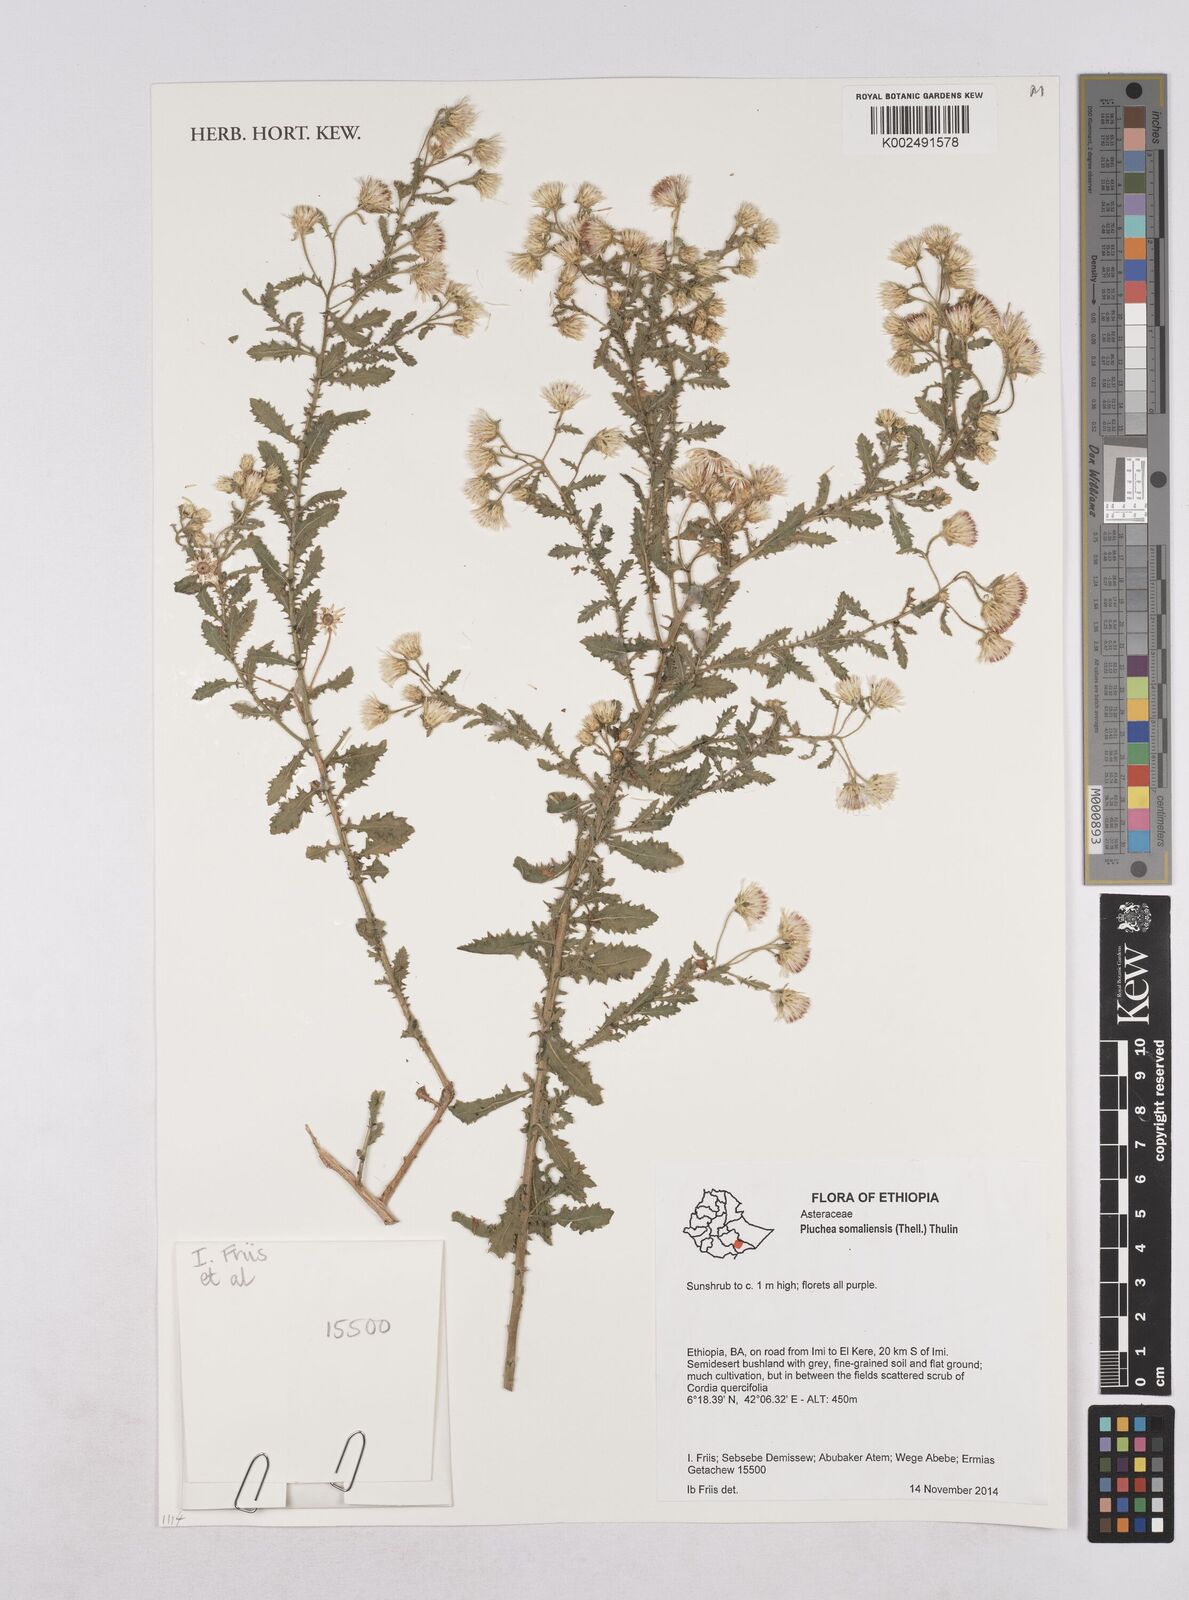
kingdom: Plantae
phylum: Tracheophyta
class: Magnoliopsida
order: Asterales
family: Asteraceae
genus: Pluchea
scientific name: Pluchea somaliensis
